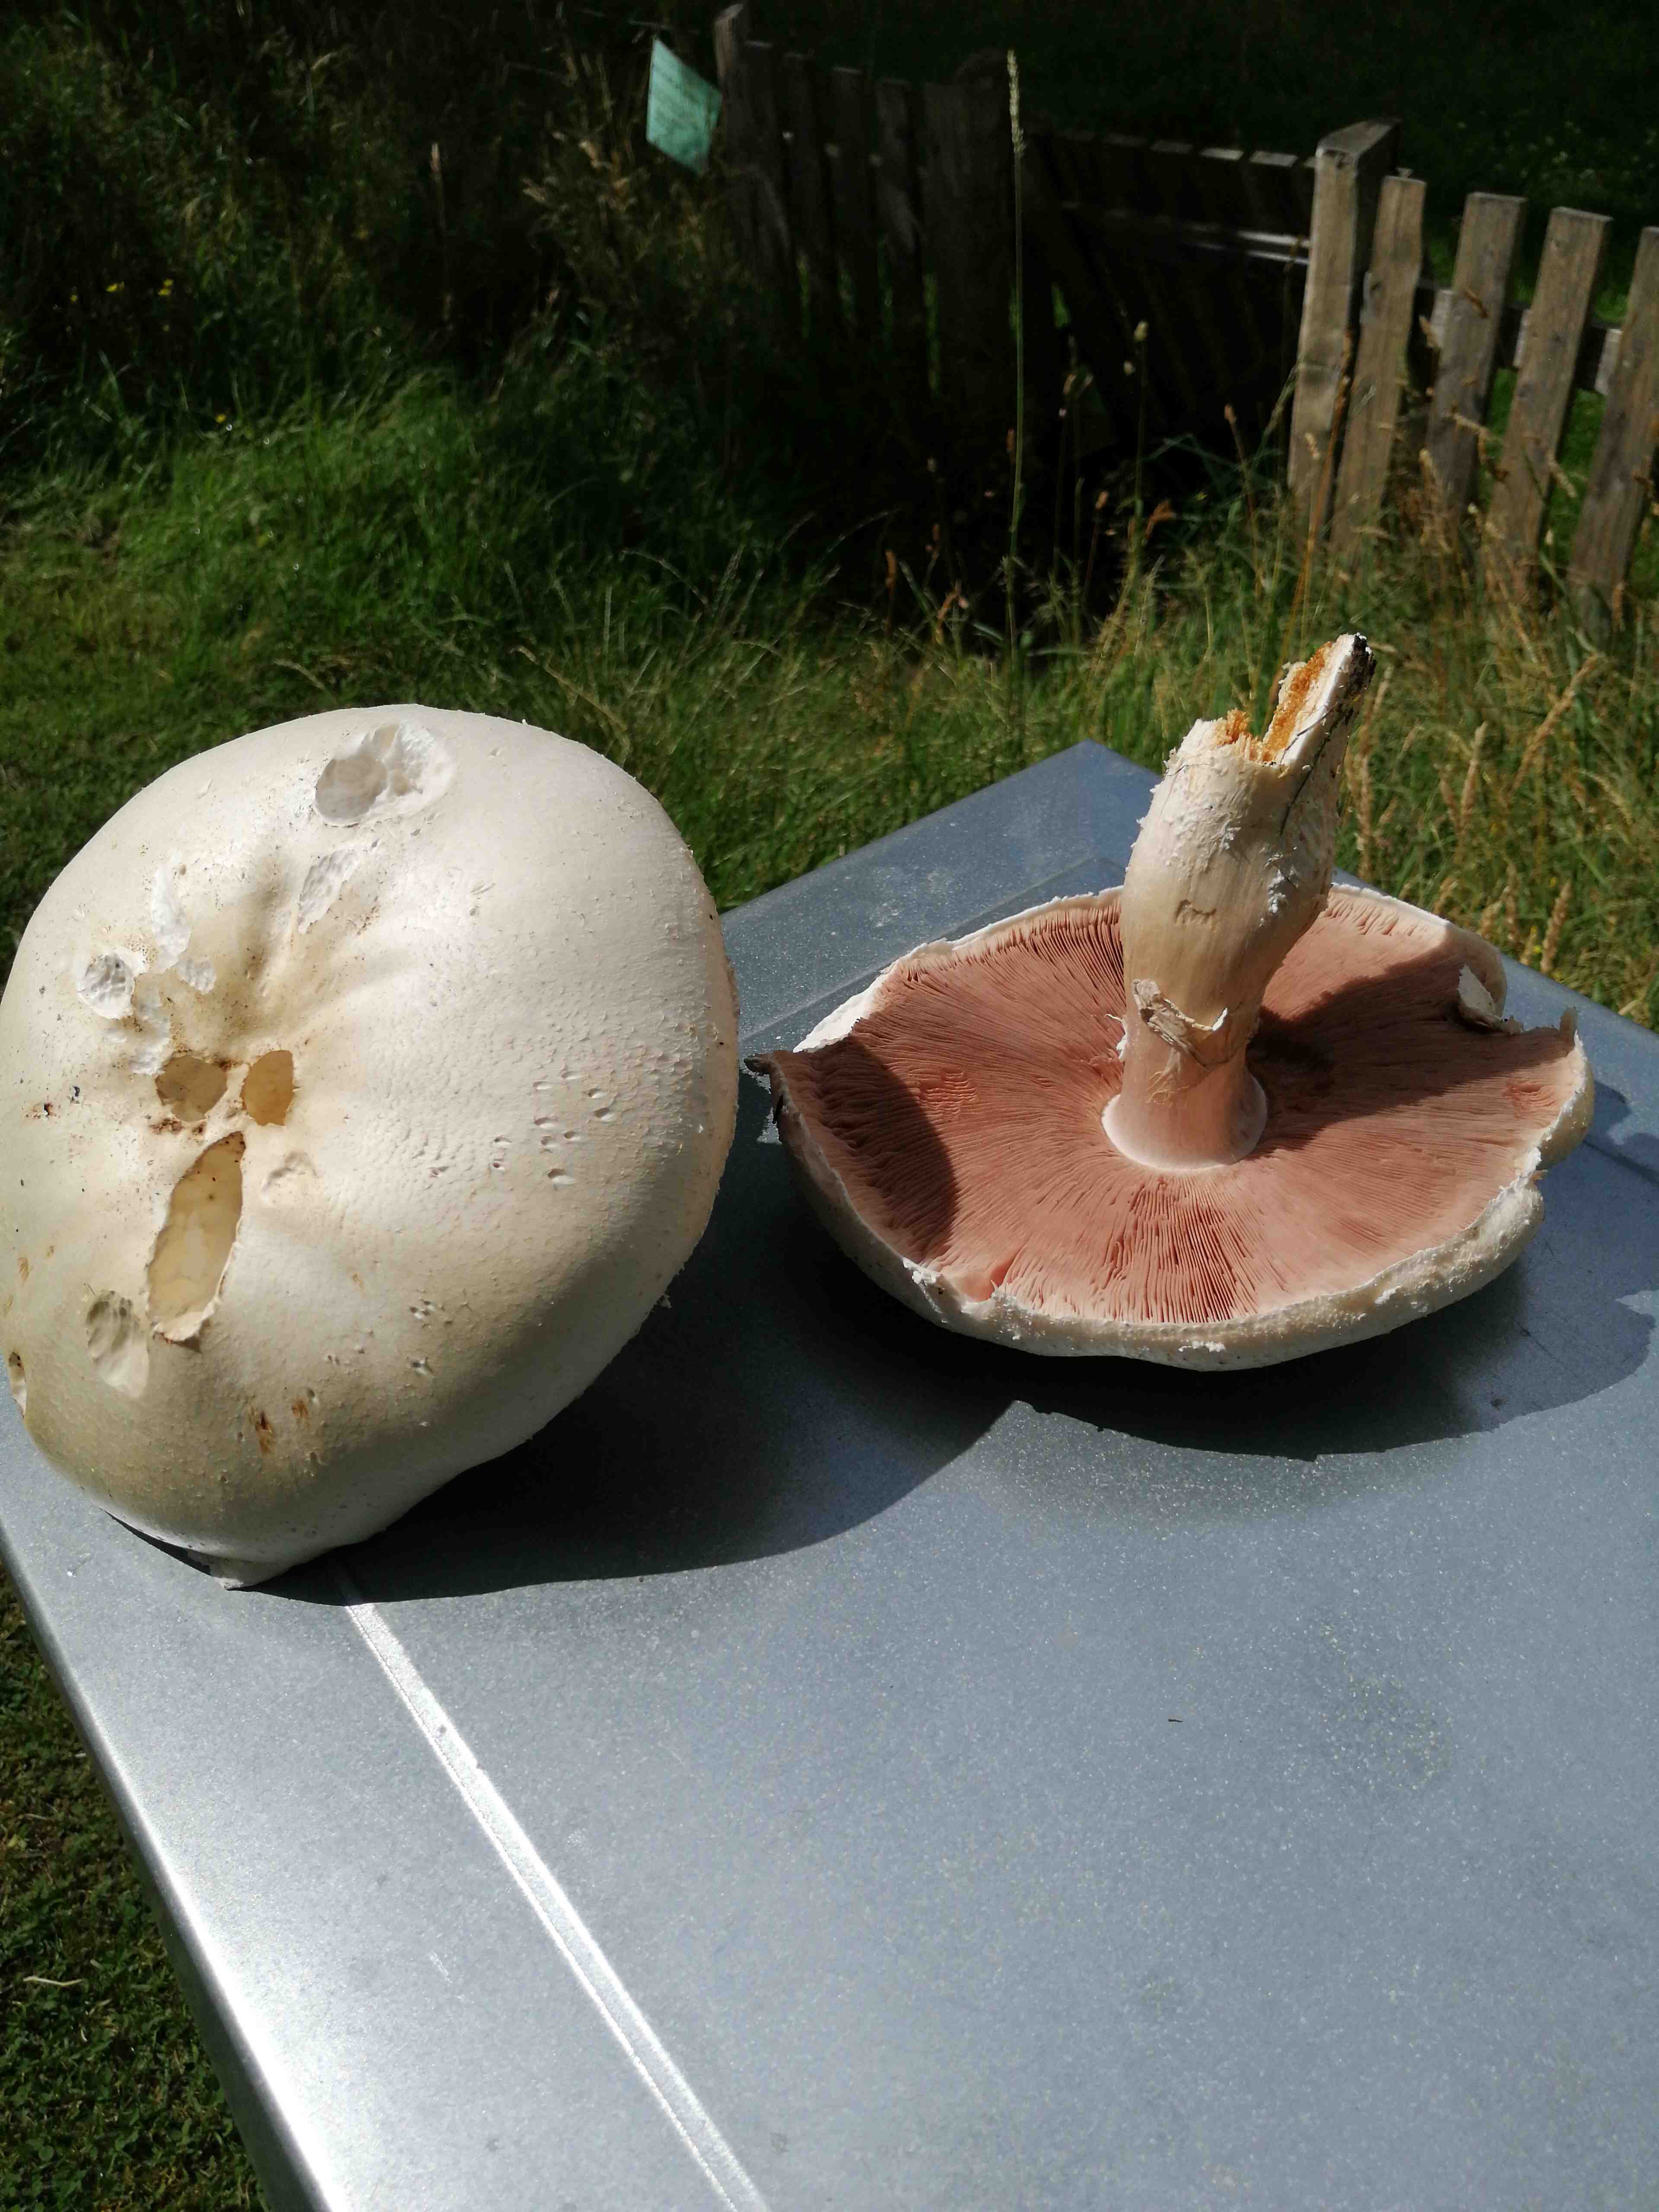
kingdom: Fungi
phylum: Basidiomycota
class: Agaricomycetes
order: Agaricales
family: Agaricaceae
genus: Agaricus
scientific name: Agaricus
